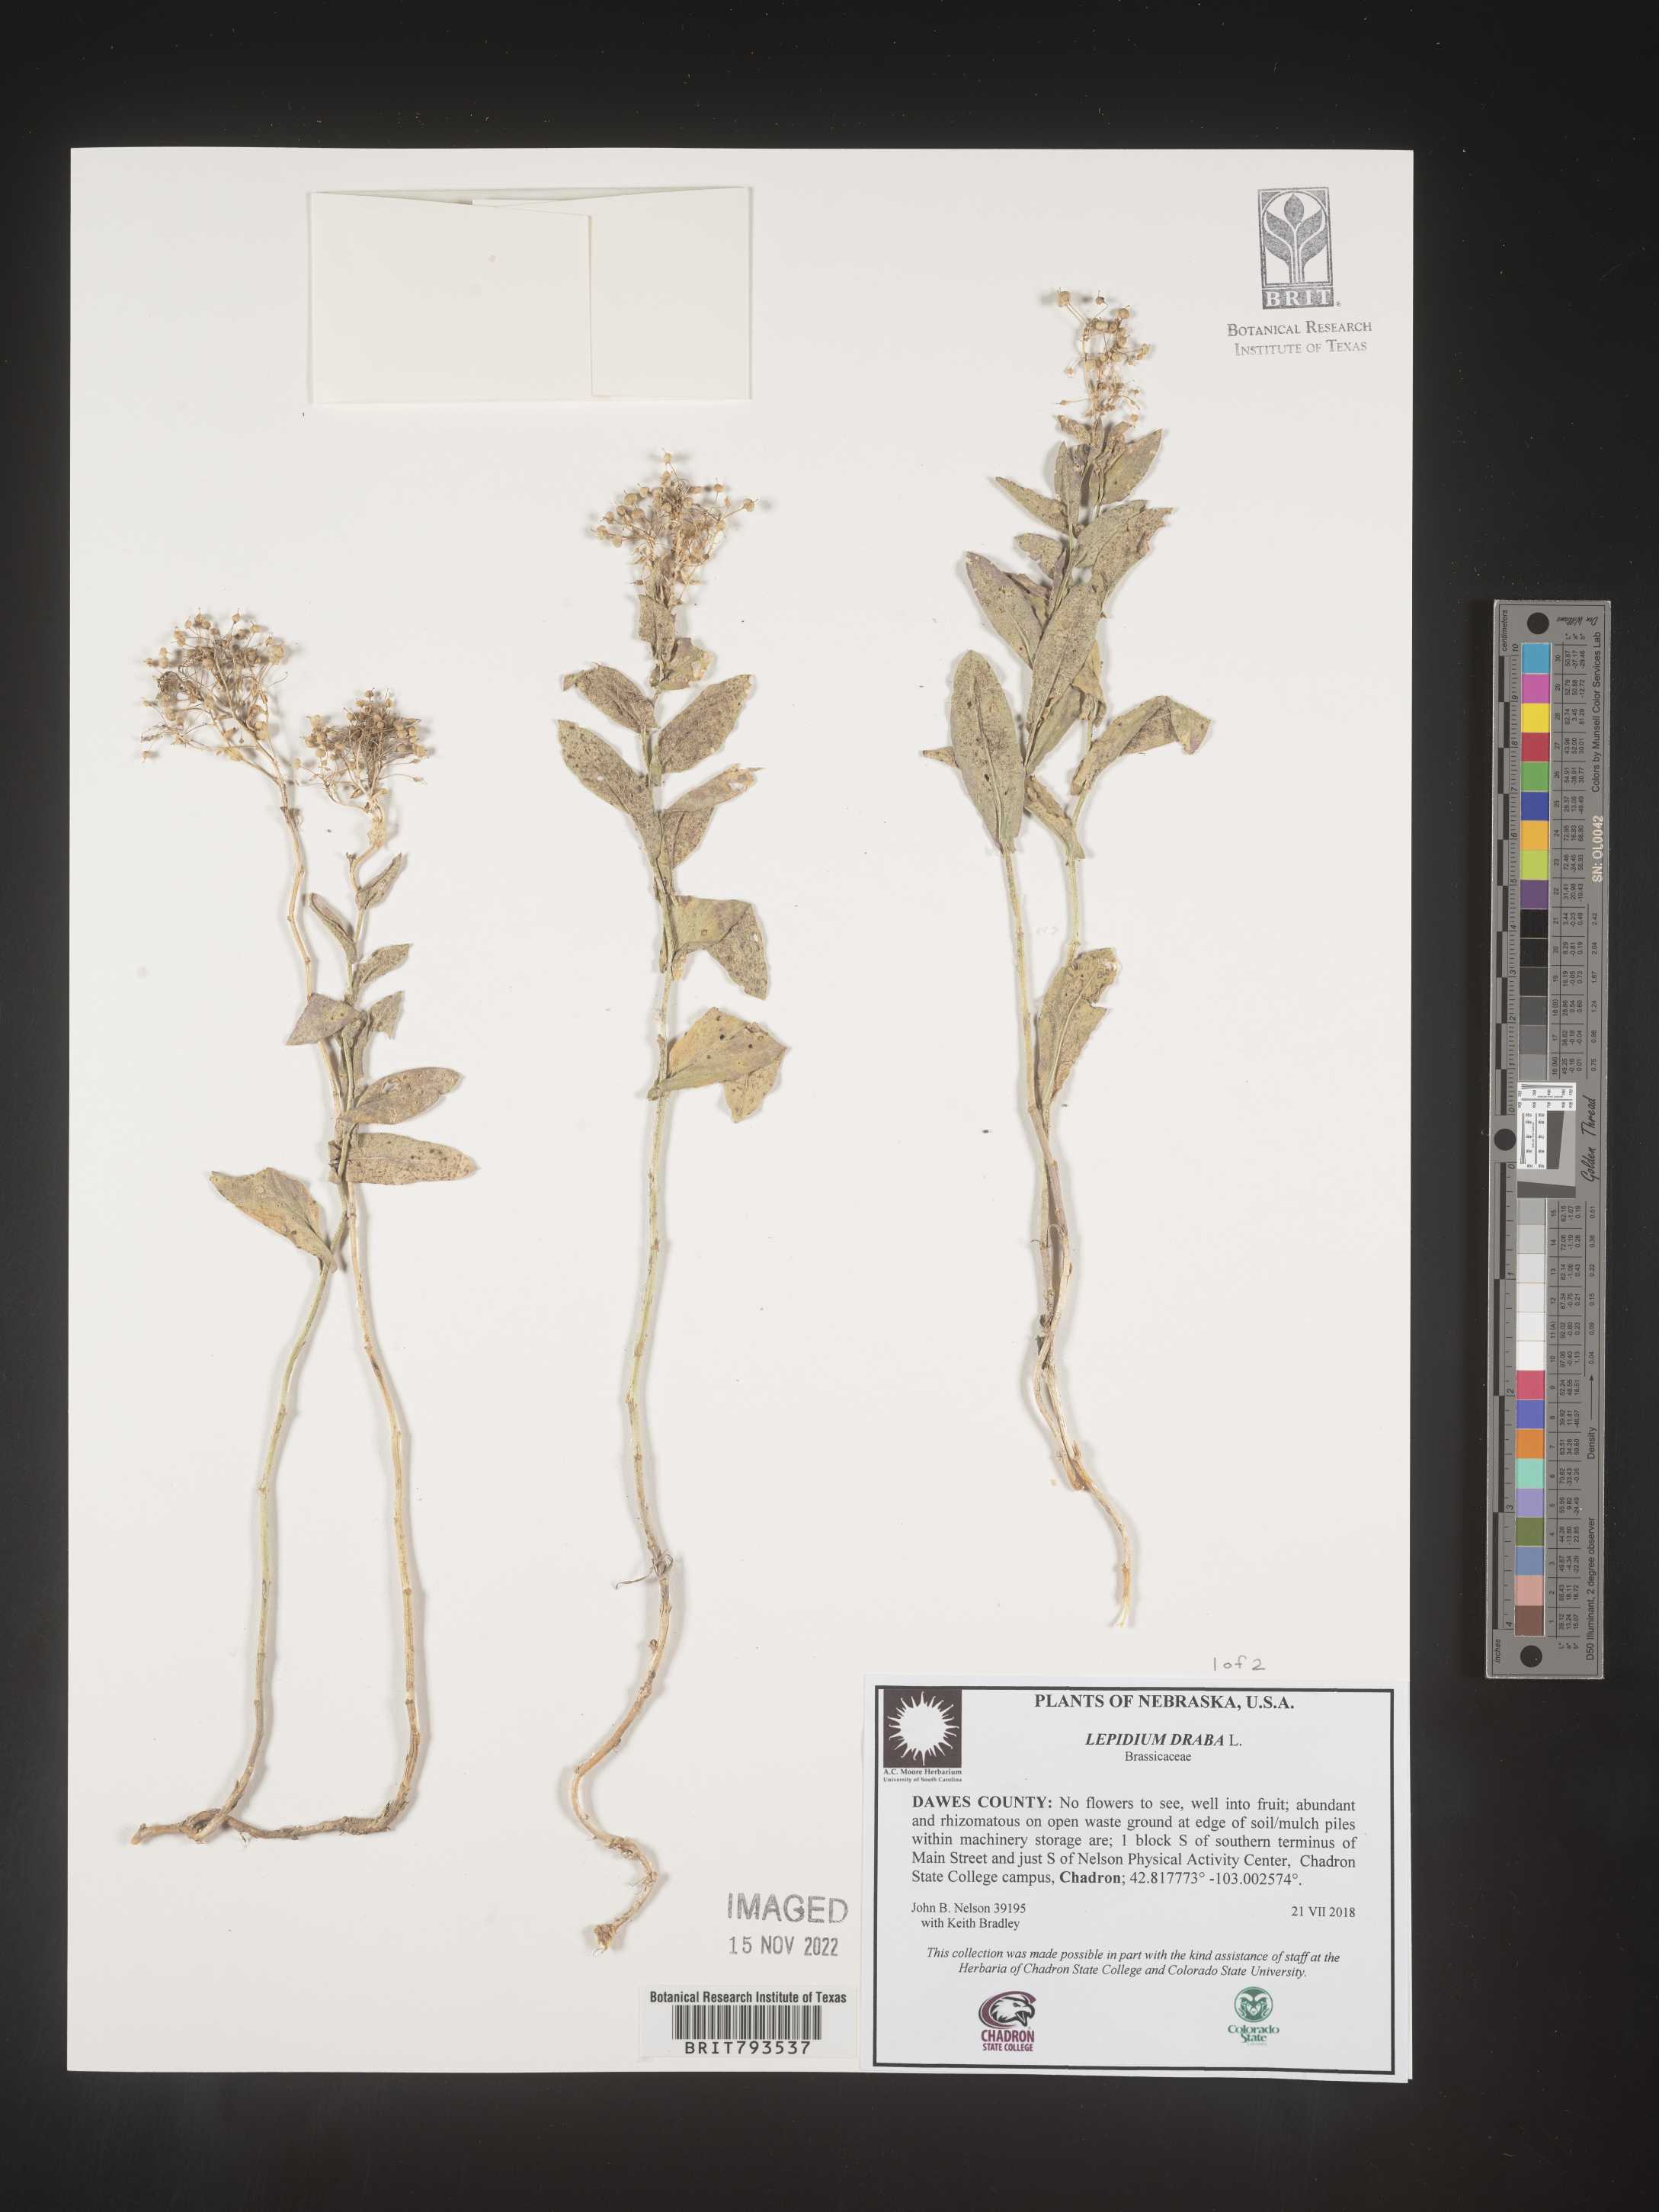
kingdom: Plantae
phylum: Tracheophyta
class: Magnoliopsida
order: Brassicales
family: Brassicaceae
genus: Lepidium
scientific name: Lepidium draba
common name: Hoary cress
